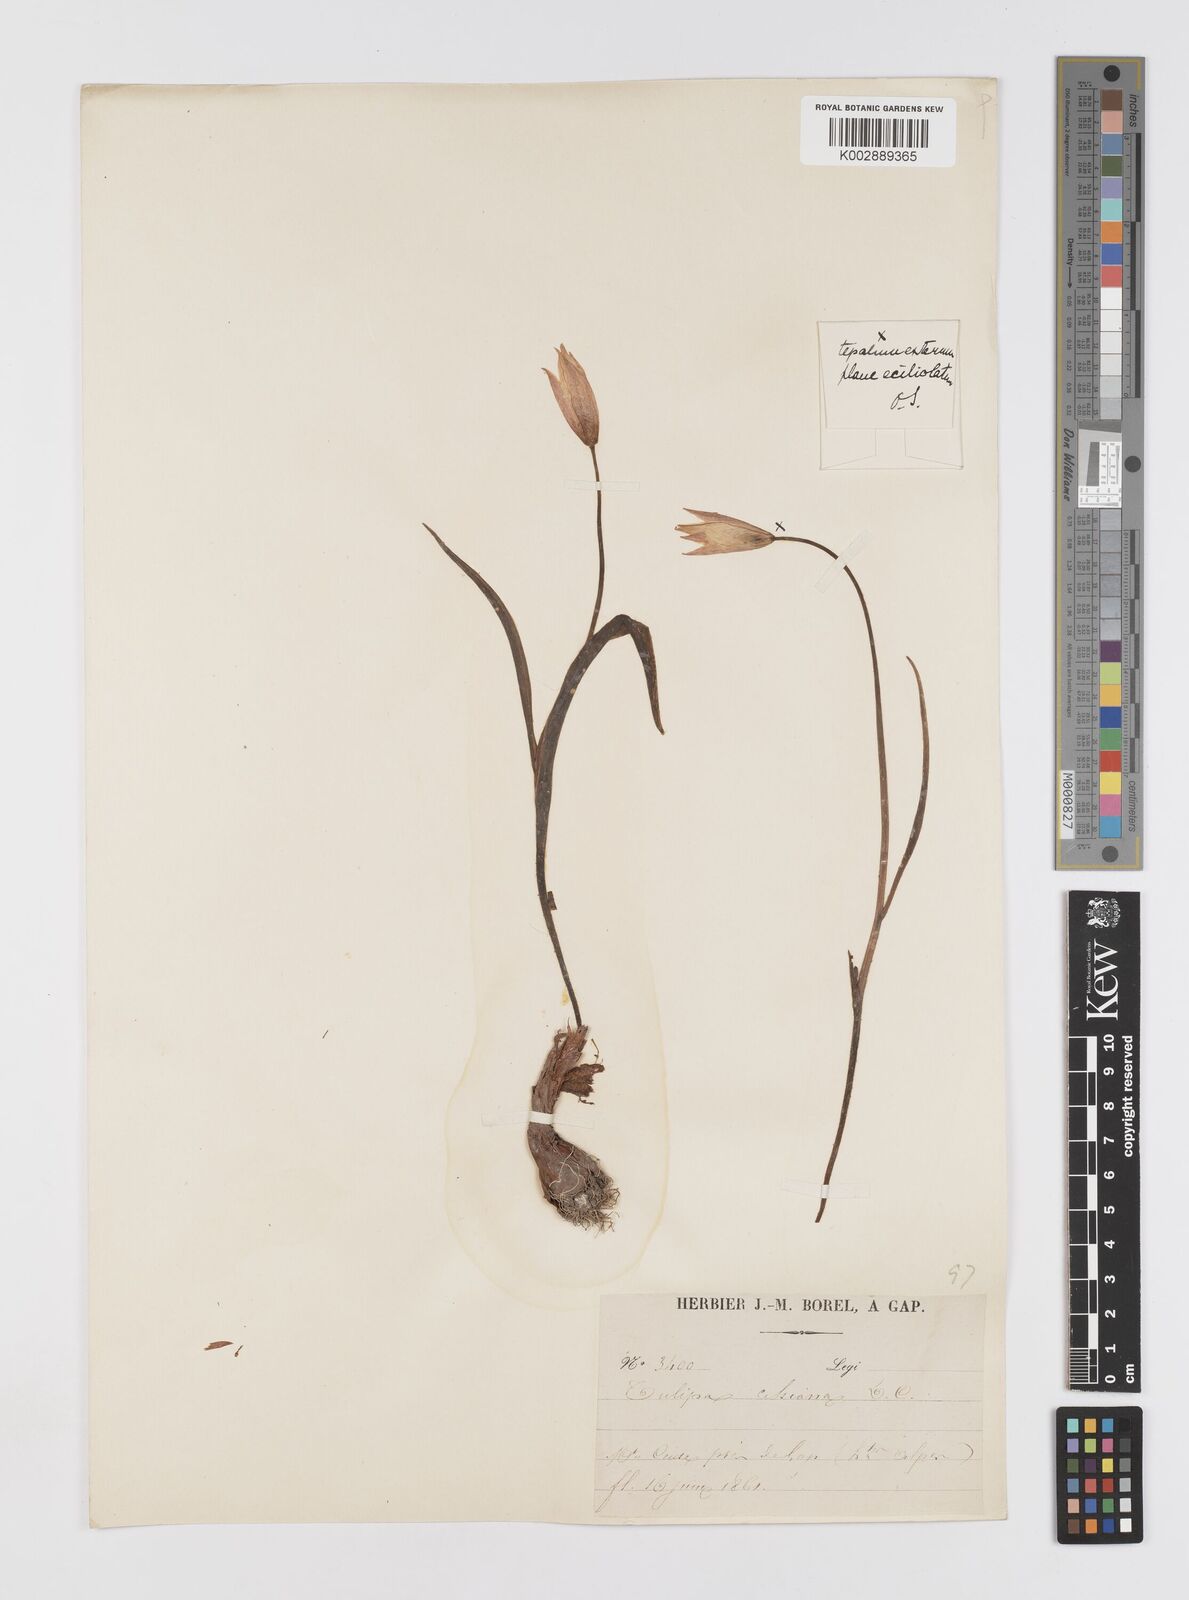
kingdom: Plantae
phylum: Tracheophyta
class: Liliopsida
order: Liliales
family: Liliaceae
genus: Tulipa
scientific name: Tulipa sylvestris
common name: Wild tulip
